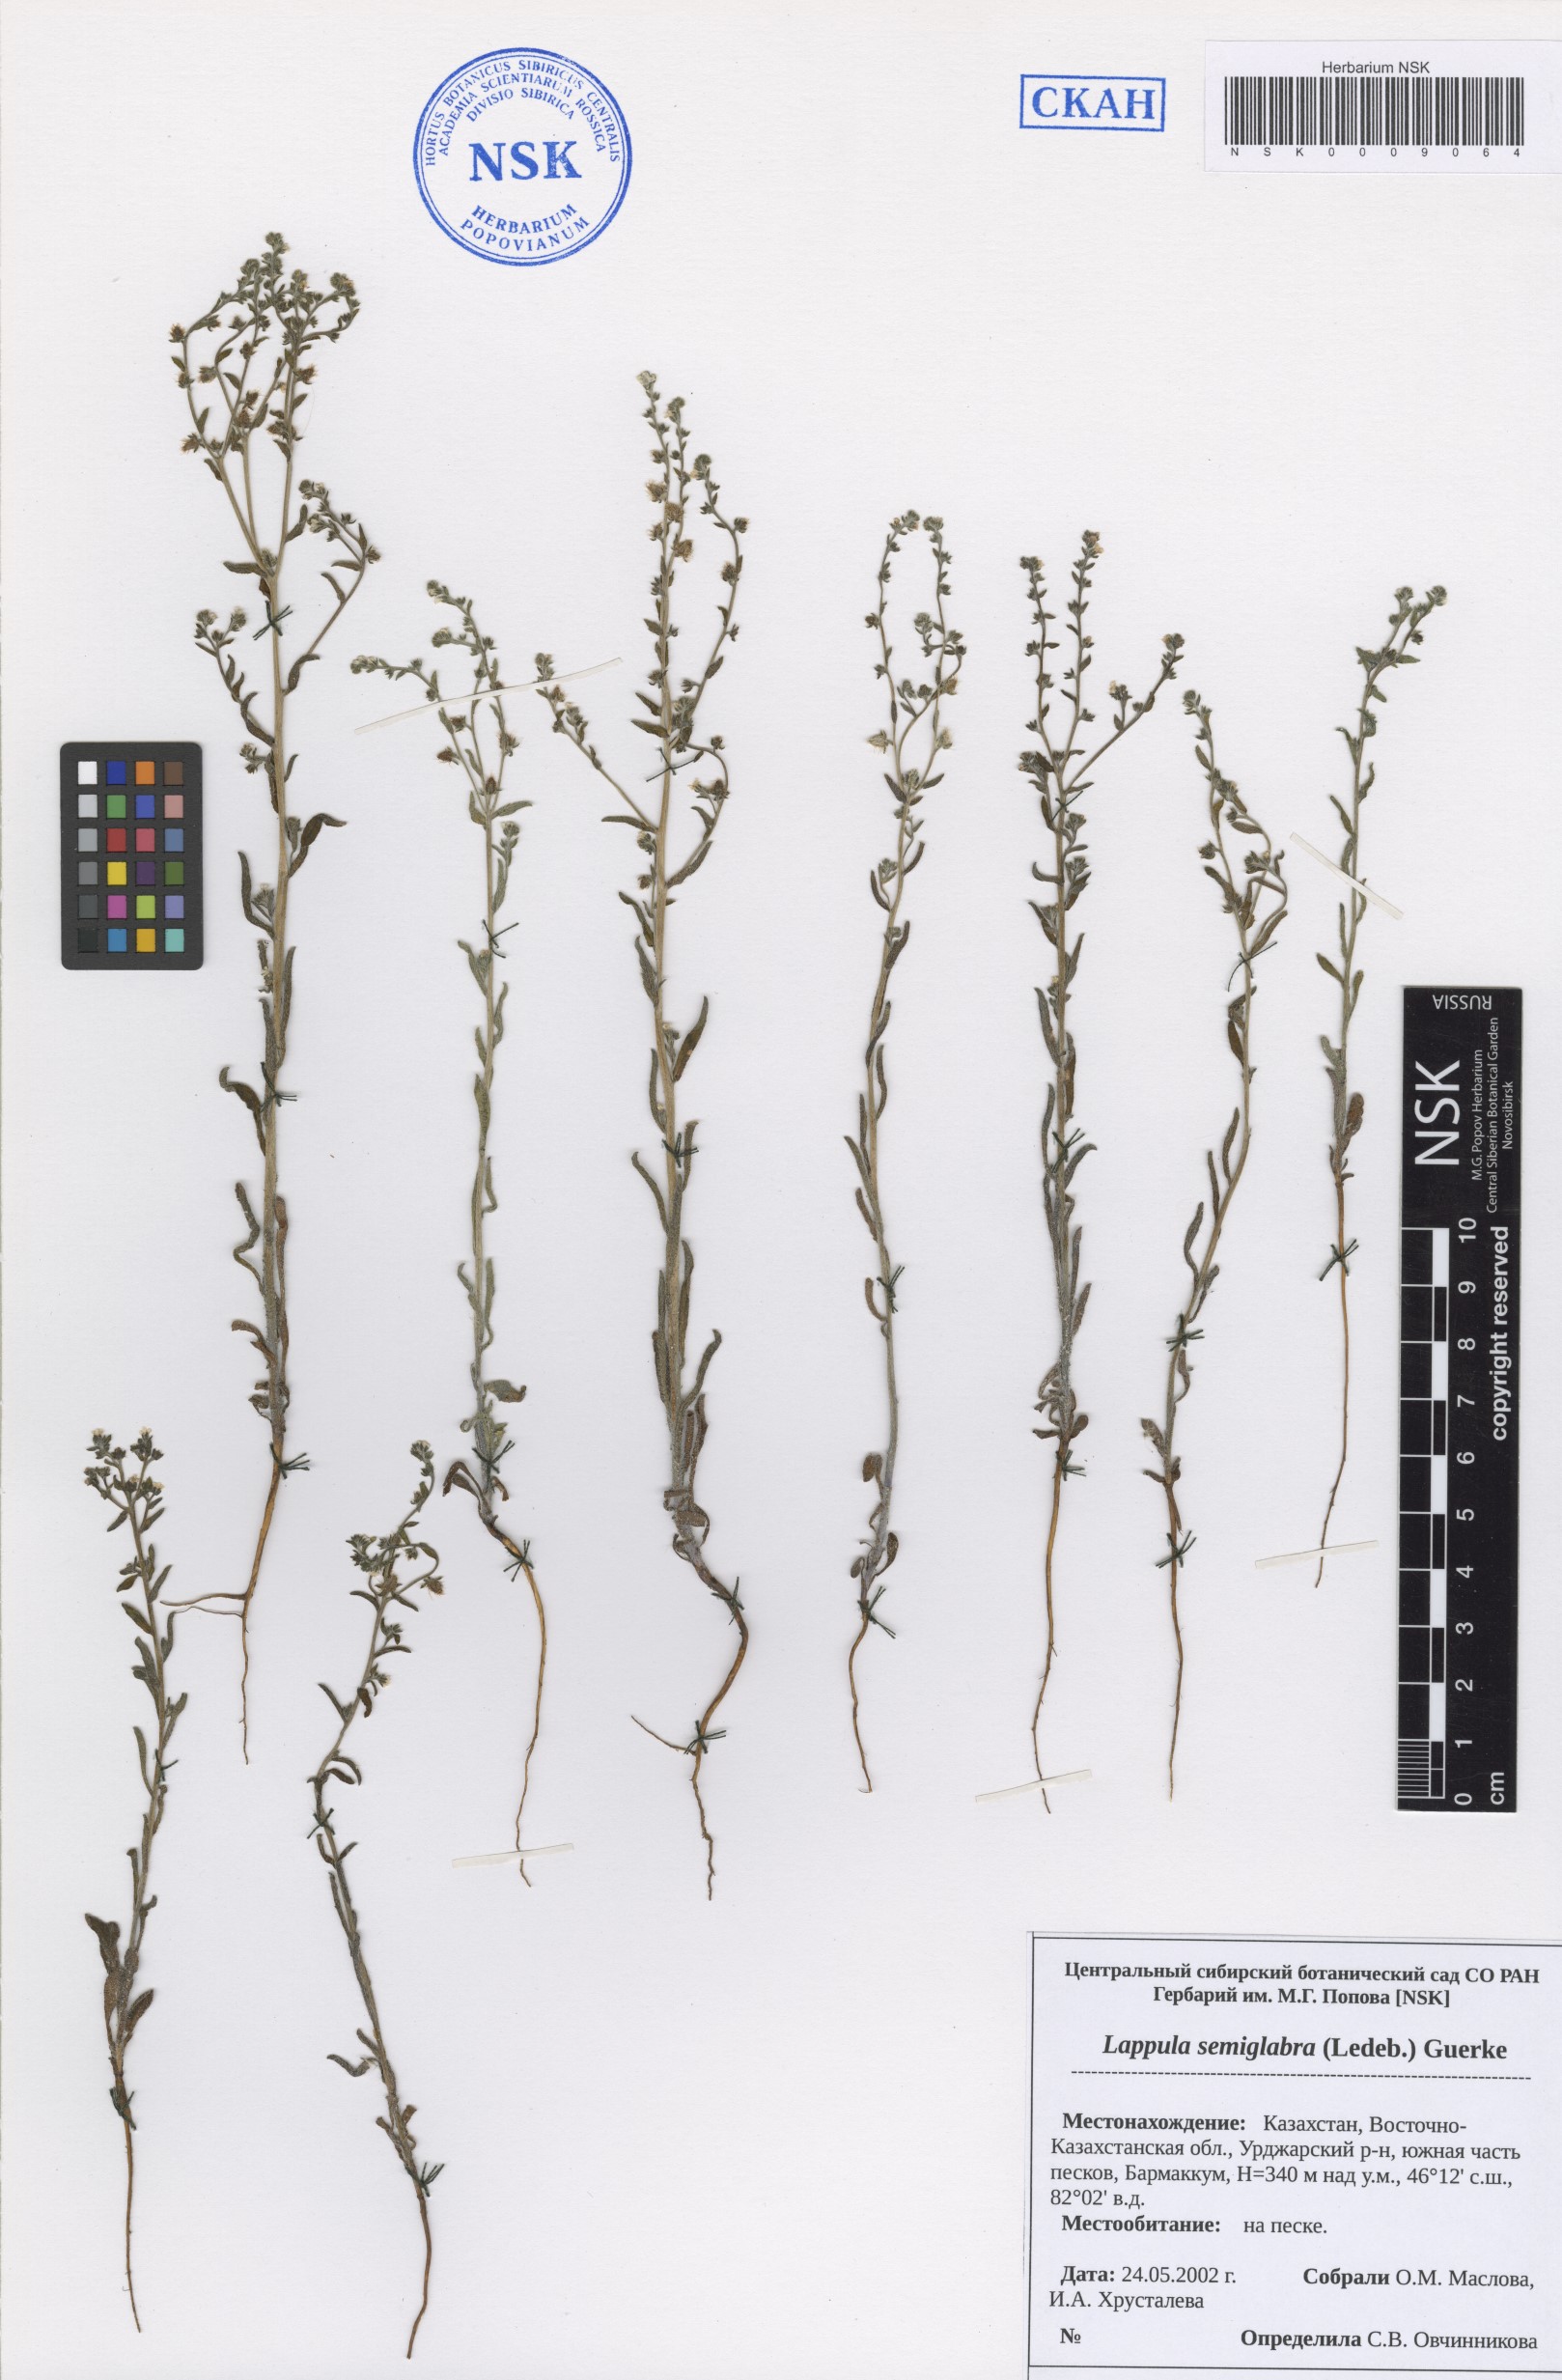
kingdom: Plantae
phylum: Tracheophyta
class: Magnoliopsida
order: Boraginales
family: Boraginaceae
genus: Lappula
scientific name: Lappula patula
